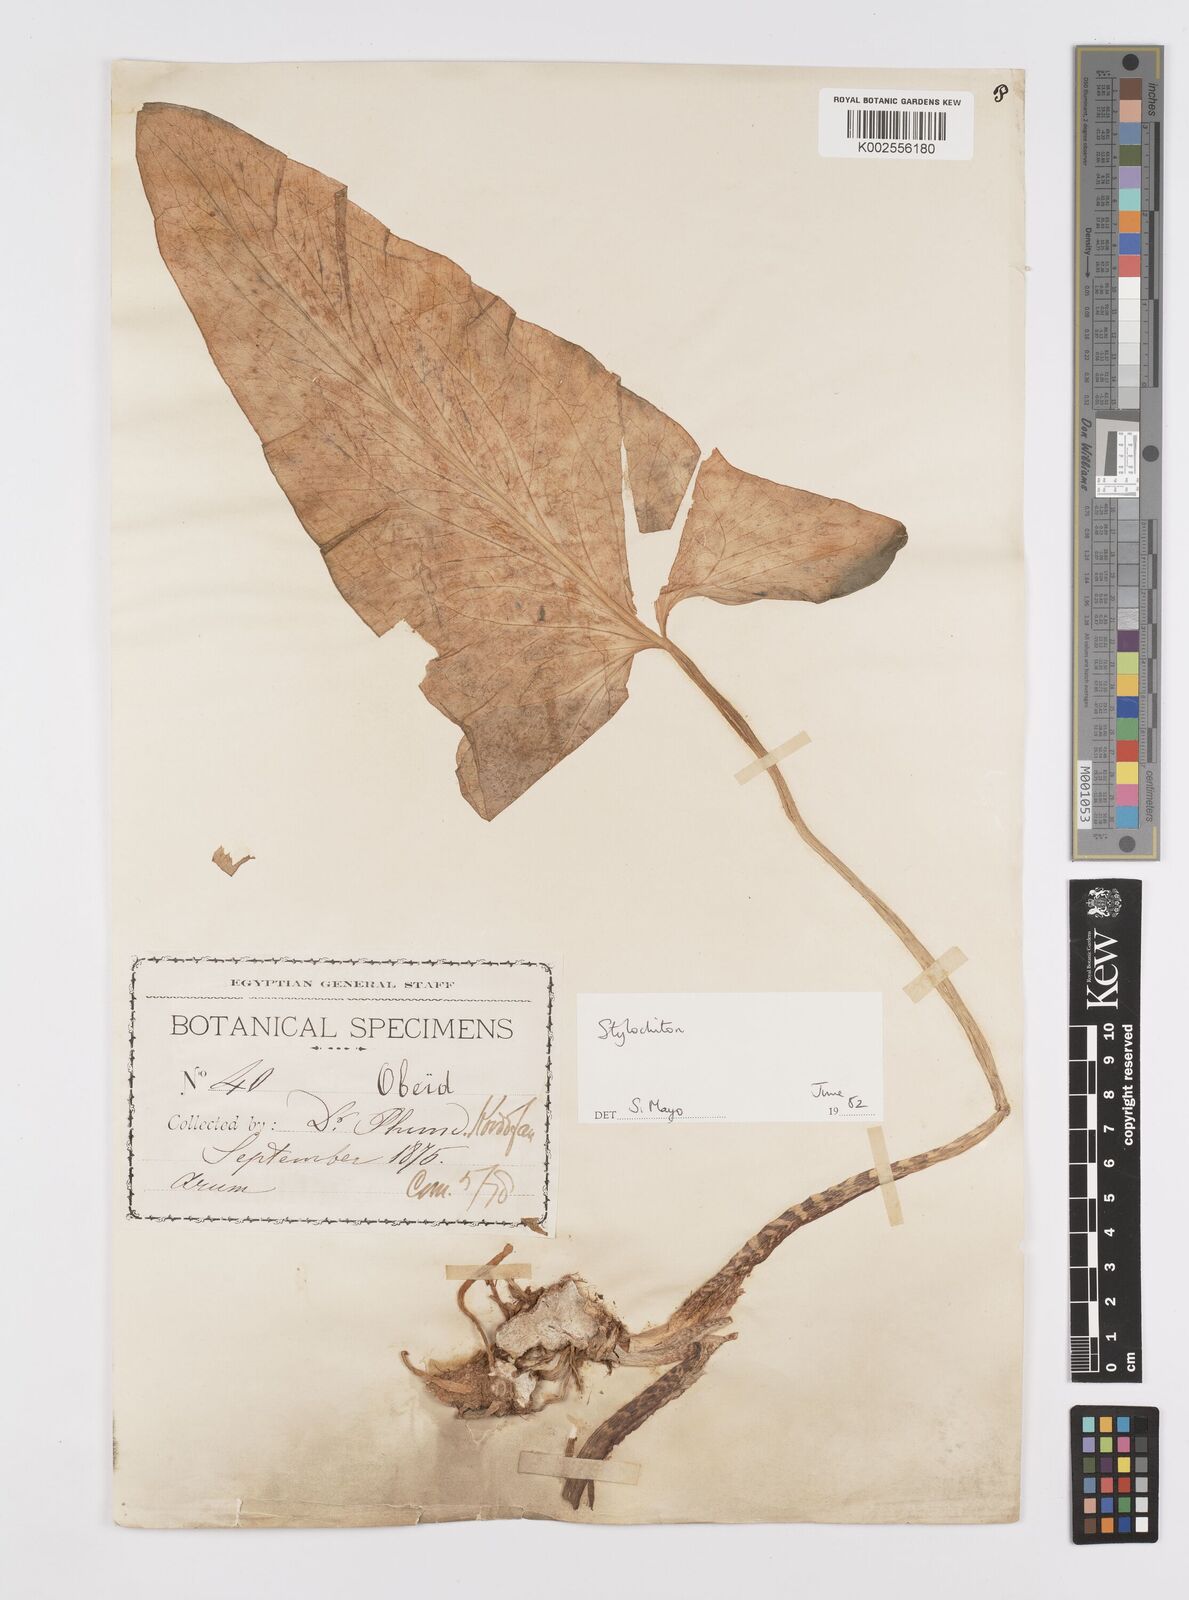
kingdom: Plantae
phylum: Tracheophyta
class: Liliopsida
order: Alismatales
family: Araceae
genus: Stylochaeton
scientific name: Stylochaeton
